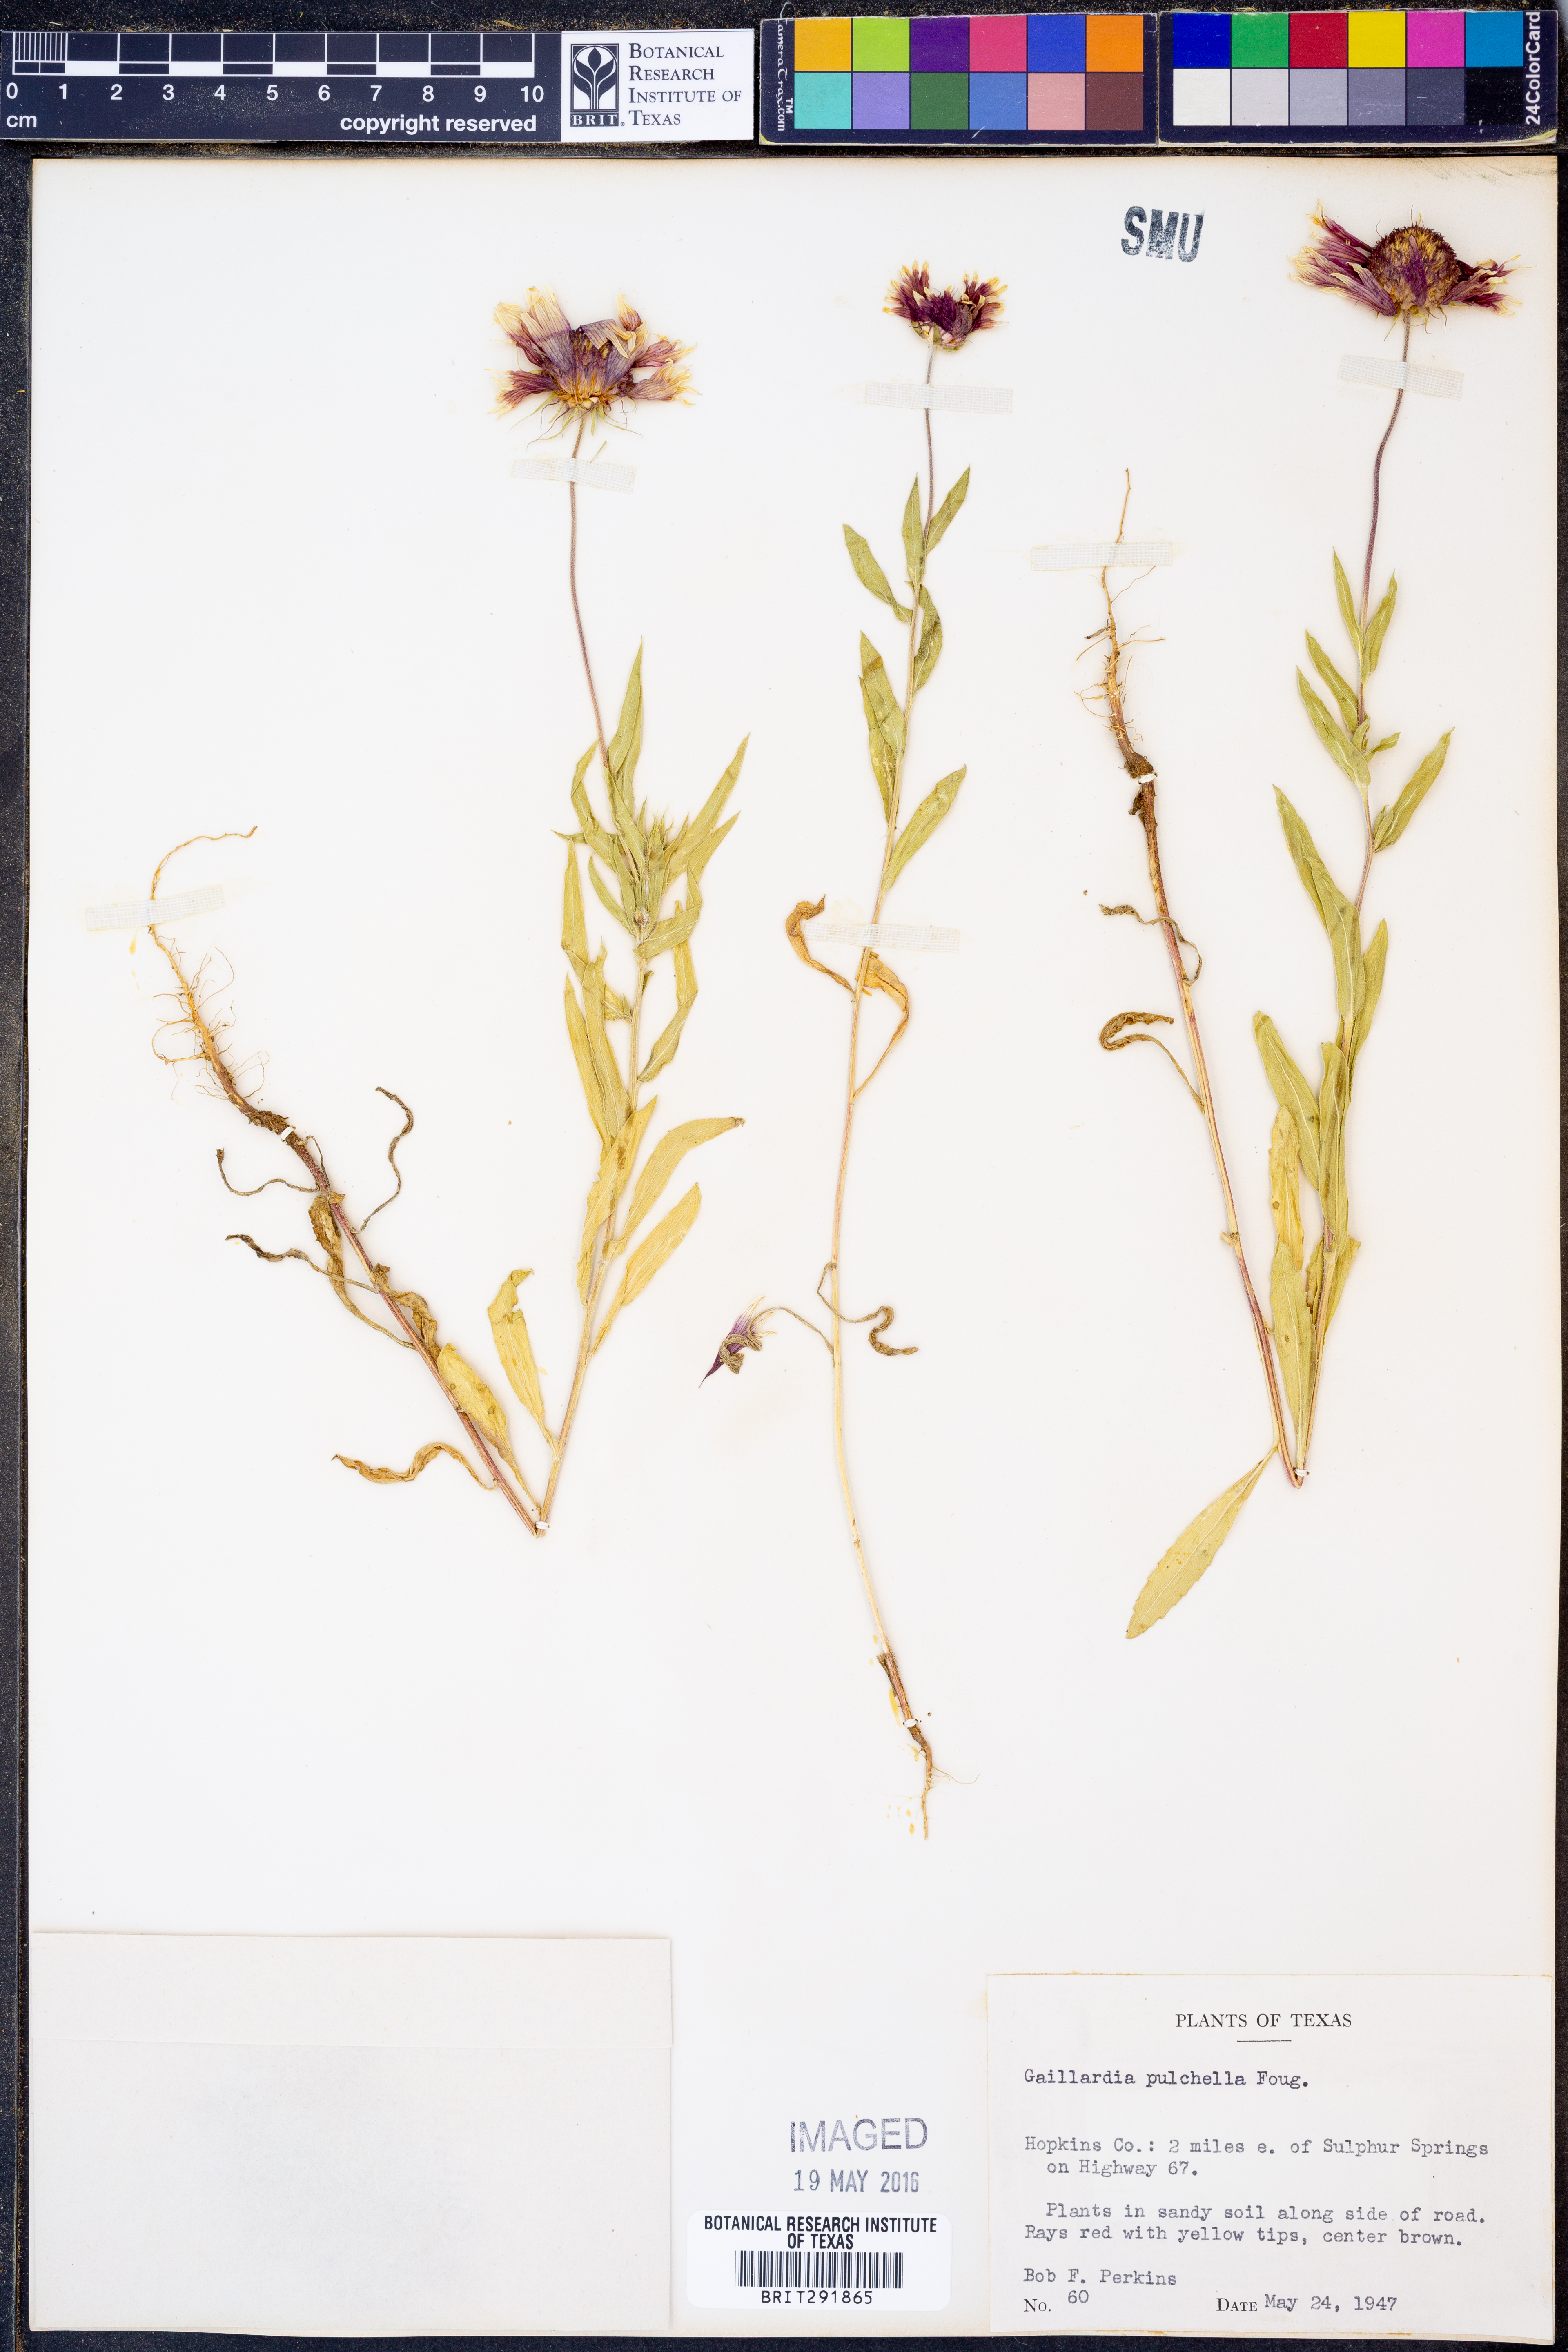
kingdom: Plantae
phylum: Tracheophyta
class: Magnoliopsida
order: Asterales
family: Asteraceae
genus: Gaillardia
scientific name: Gaillardia pulchella
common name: Firewheel
